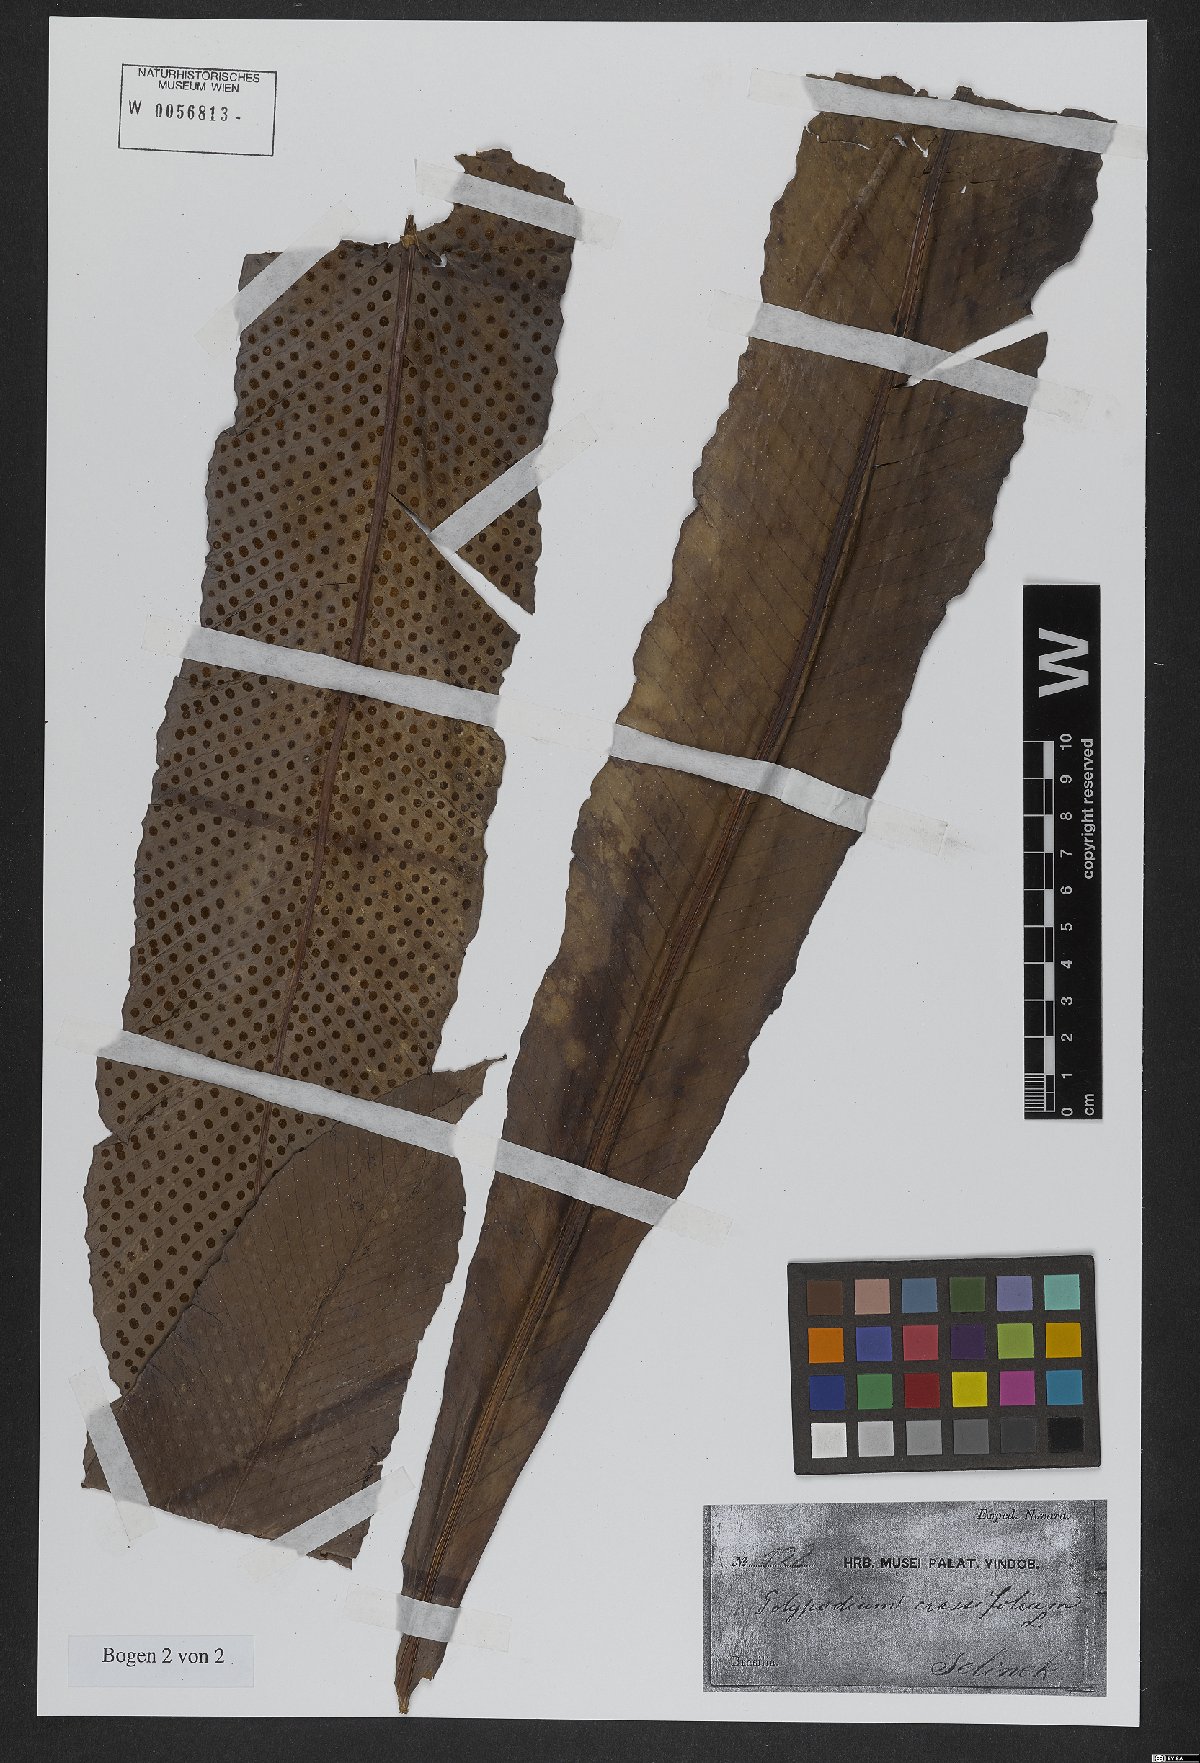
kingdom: Plantae
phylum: Tracheophyta
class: Polypodiopsida
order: Polypodiales
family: Polypodiaceae
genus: Niphidium
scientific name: Niphidium crassifolium
